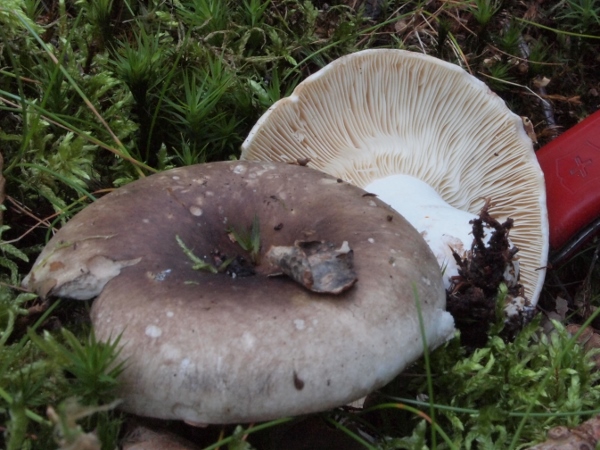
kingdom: Fungi
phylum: Basidiomycota
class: Agaricomycetes
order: Russulales
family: Russulaceae
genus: Russula
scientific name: Russula densifolia
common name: tætbladet skørhat
